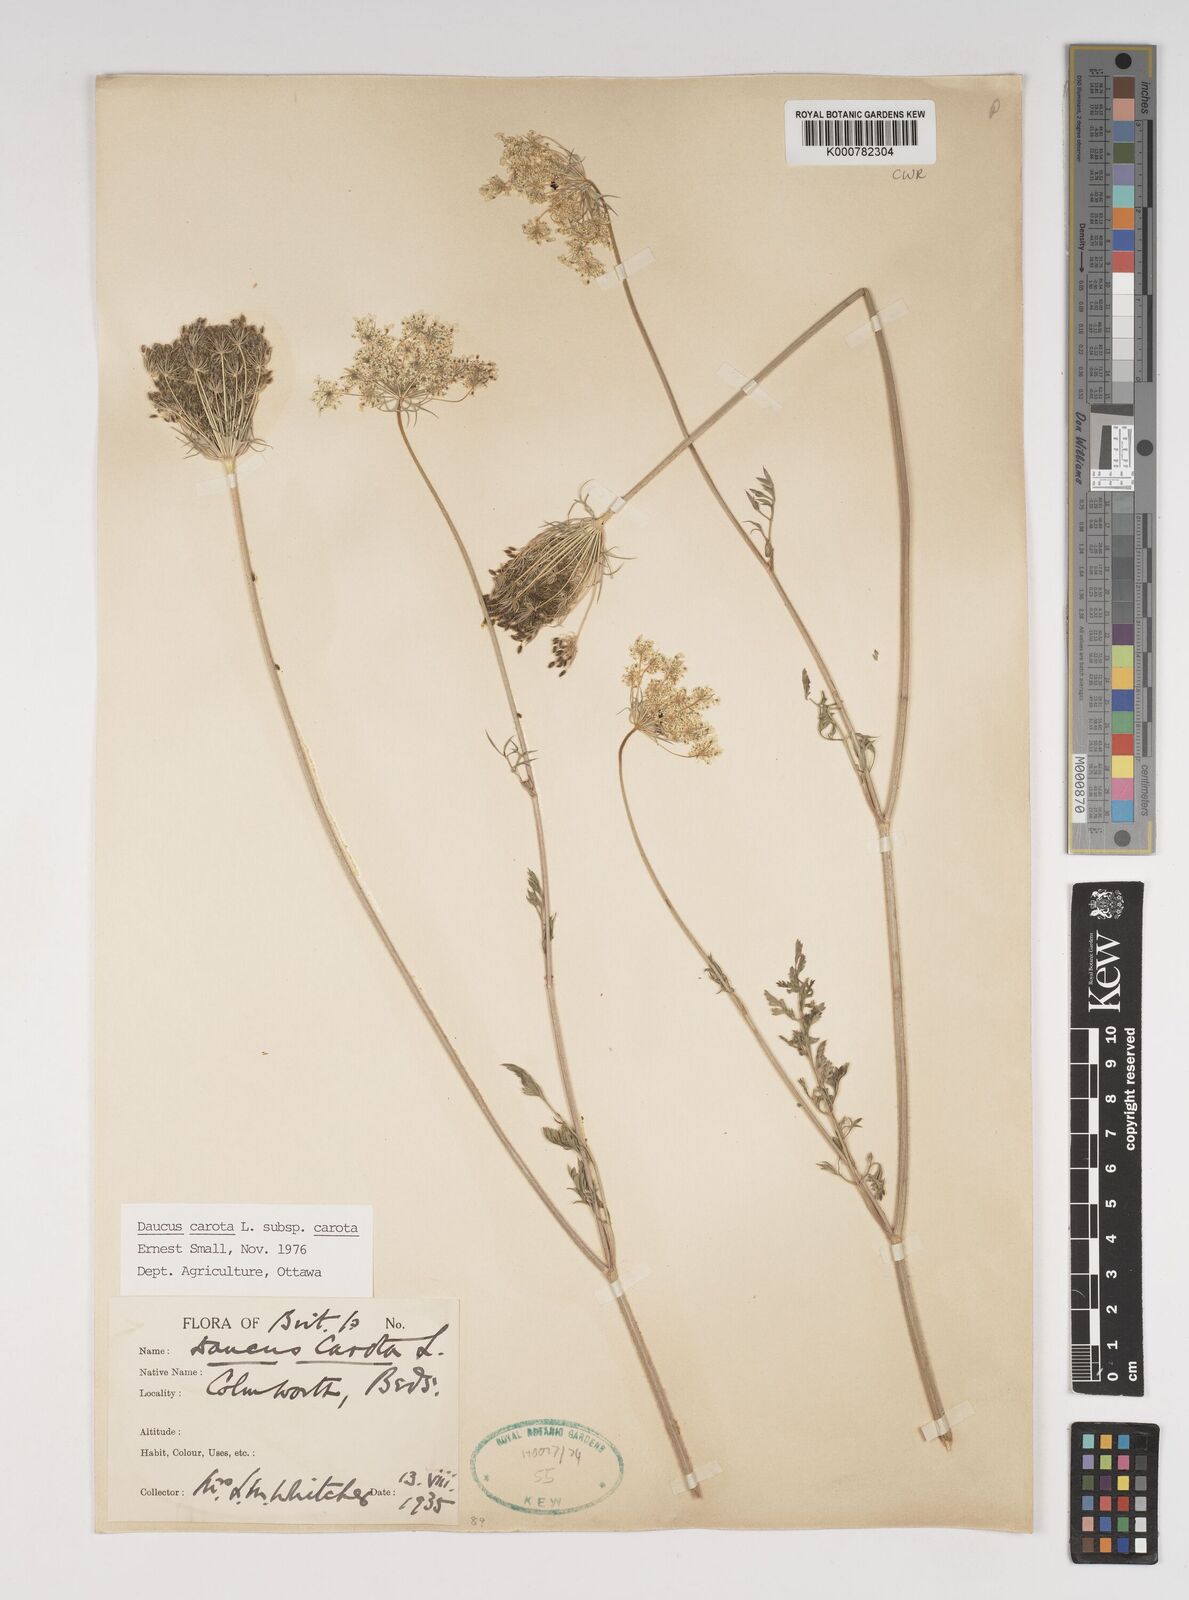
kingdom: Plantae
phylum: Tracheophyta
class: Magnoliopsida
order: Apiales
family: Apiaceae
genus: Daucus
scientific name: Daucus carota
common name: Wild carrot
